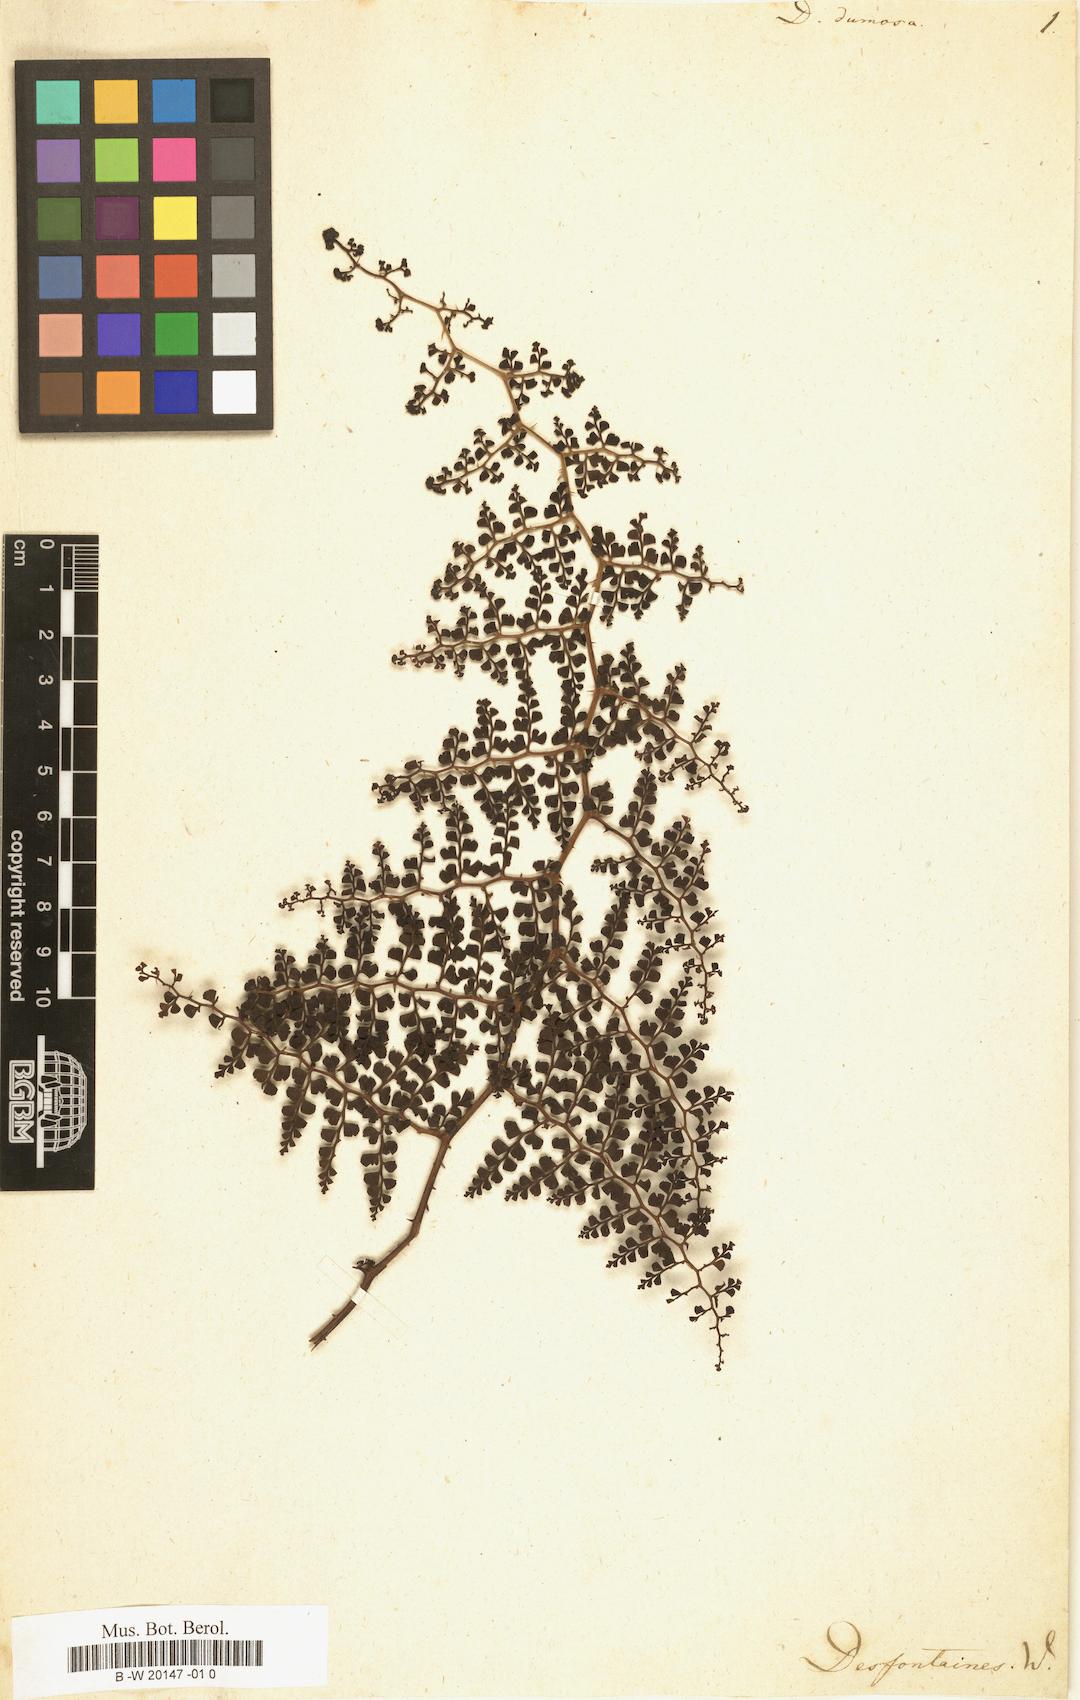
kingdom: Plantae
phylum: Tracheophyta
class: Polypodiopsida
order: Polypodiales
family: Lindsaeaceae
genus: Odontosoria
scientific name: Odontosoria aculeata
